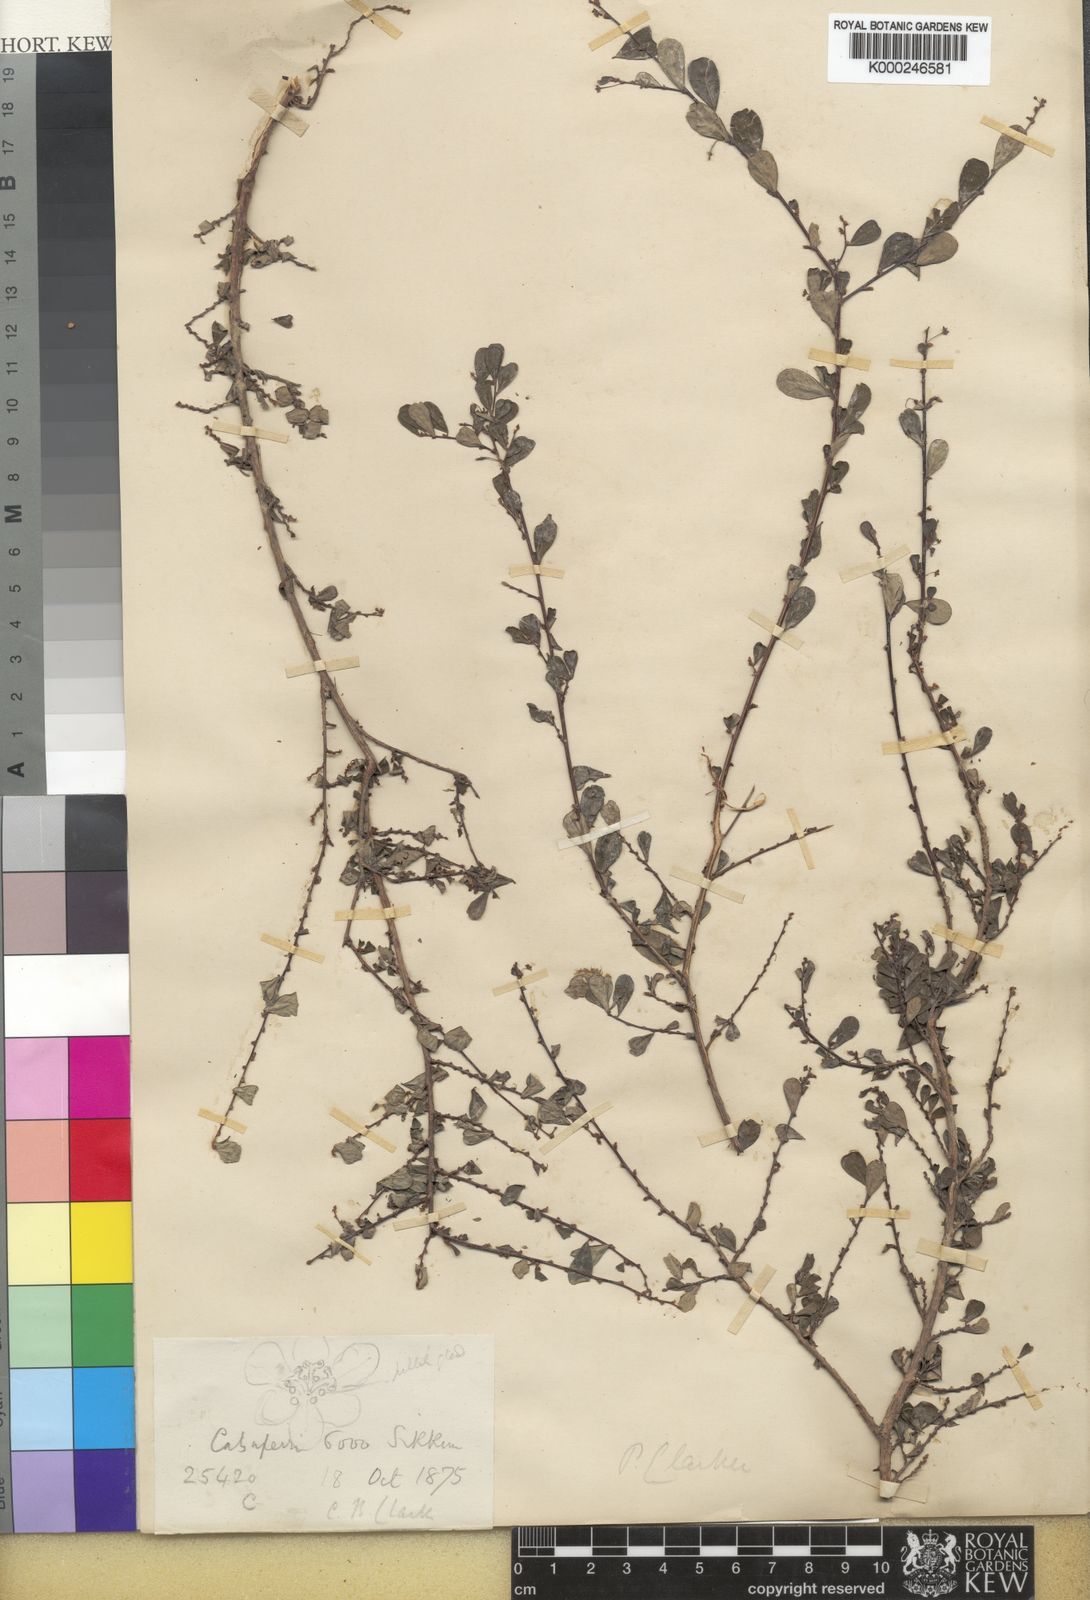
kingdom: Plantae
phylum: Tracheophyta
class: Magnoliopsida
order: Malpighiales
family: Phyllanthaceae
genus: Phyllanthus
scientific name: Phyllanthus clarkei
